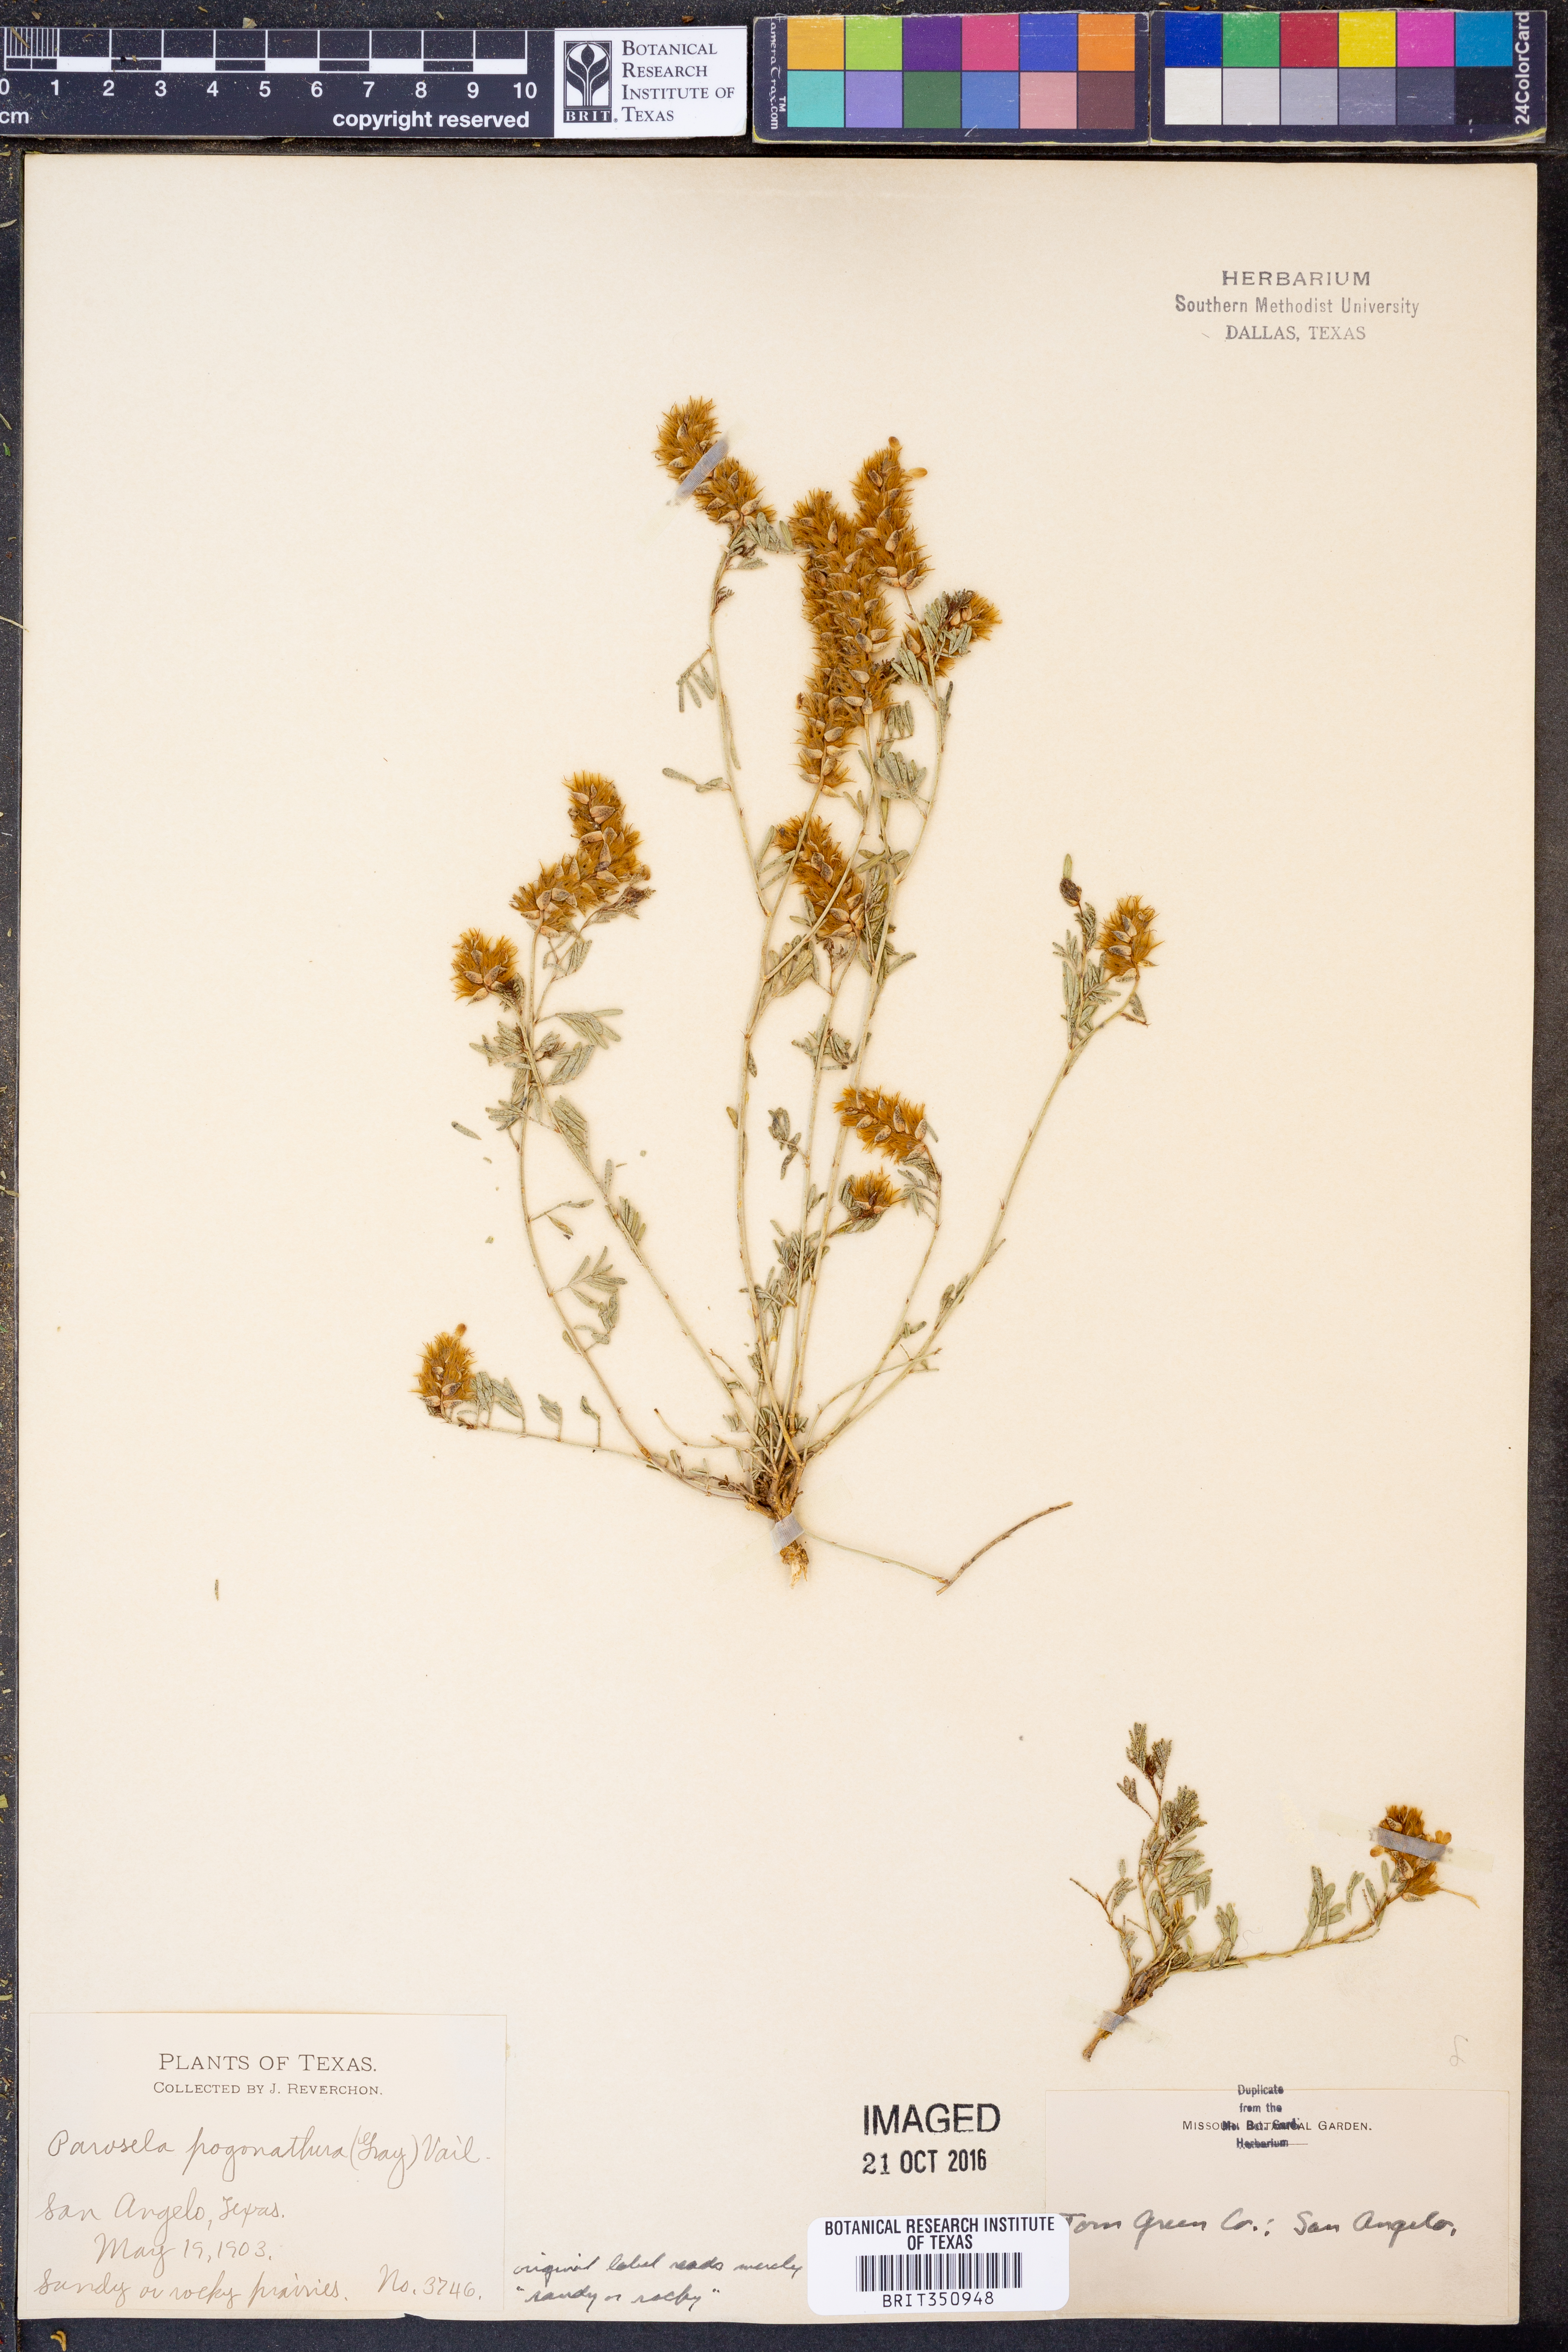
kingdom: Plantae
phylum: Tracheophyta
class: Magnoliopsida
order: Fabales
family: Fabaceae
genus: Dalea
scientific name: Dalea pogonathera
